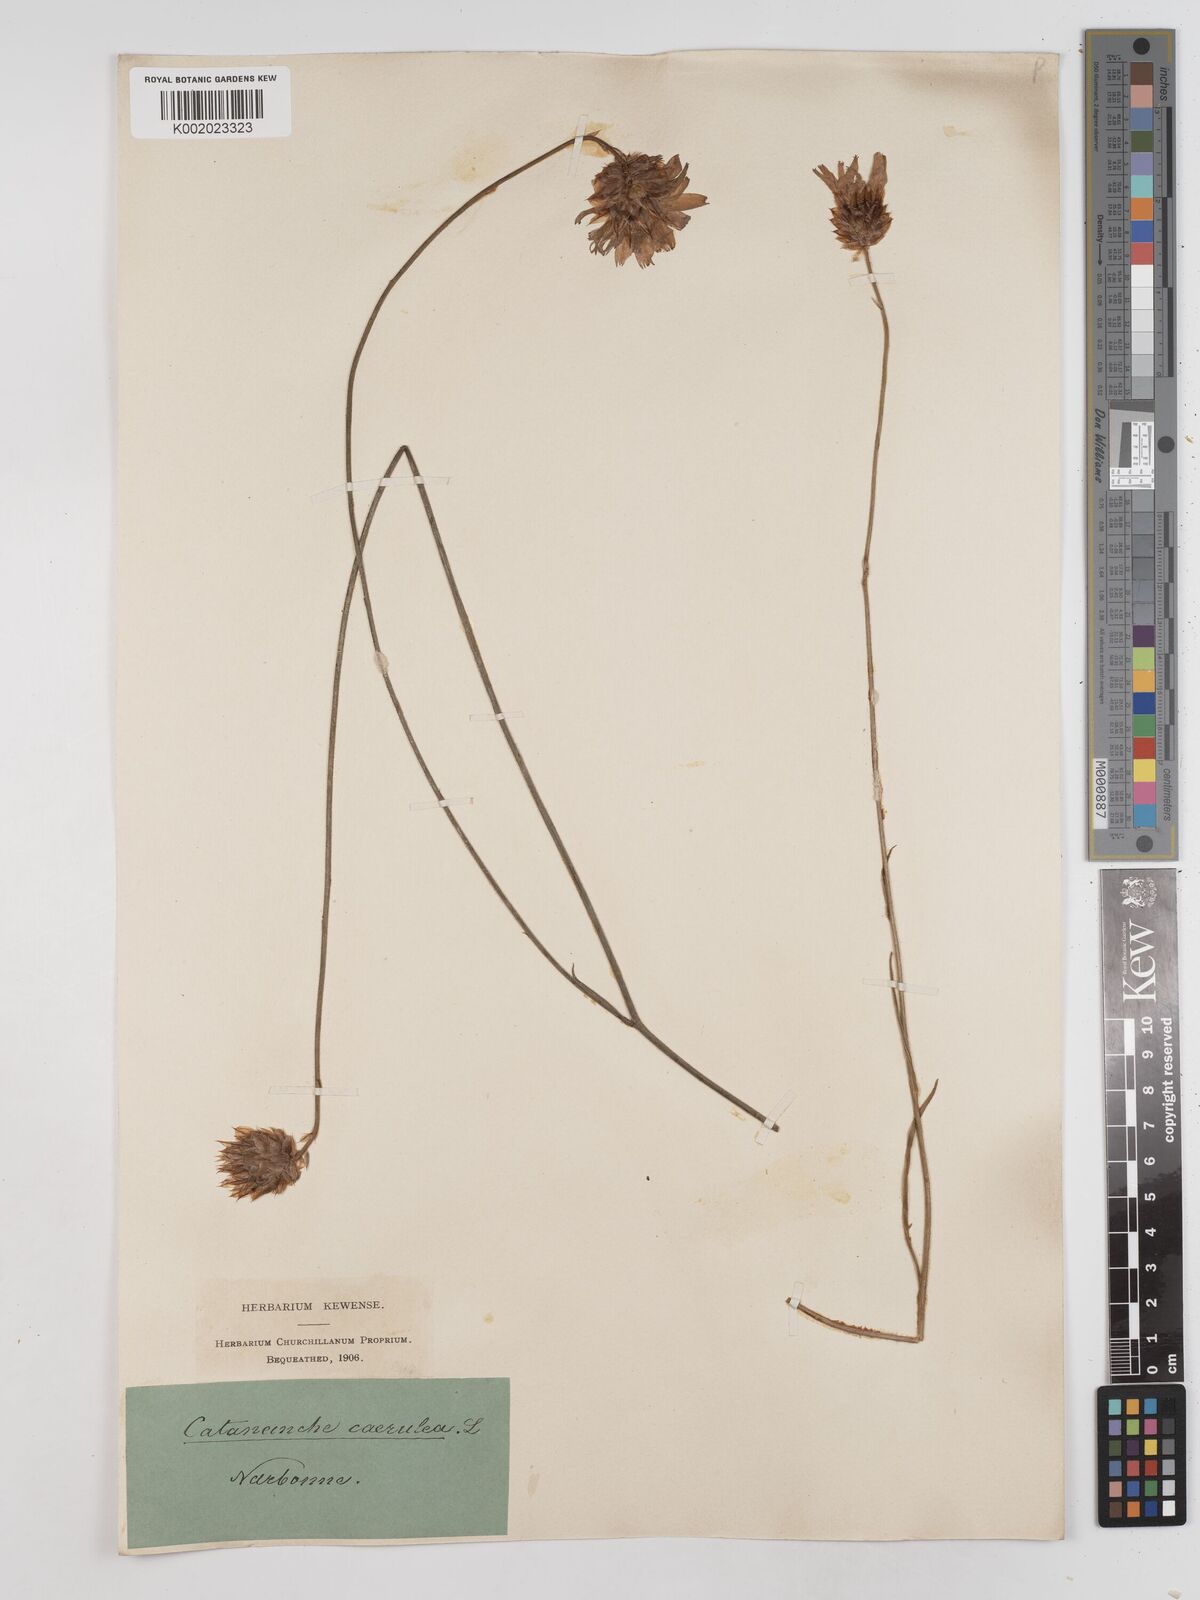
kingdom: Plantae
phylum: Tracheophyta
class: Magnoliopsida
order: Asterales
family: Asteraceae
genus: Catananche
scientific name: Catananche caerulea
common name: Blue cupidone
